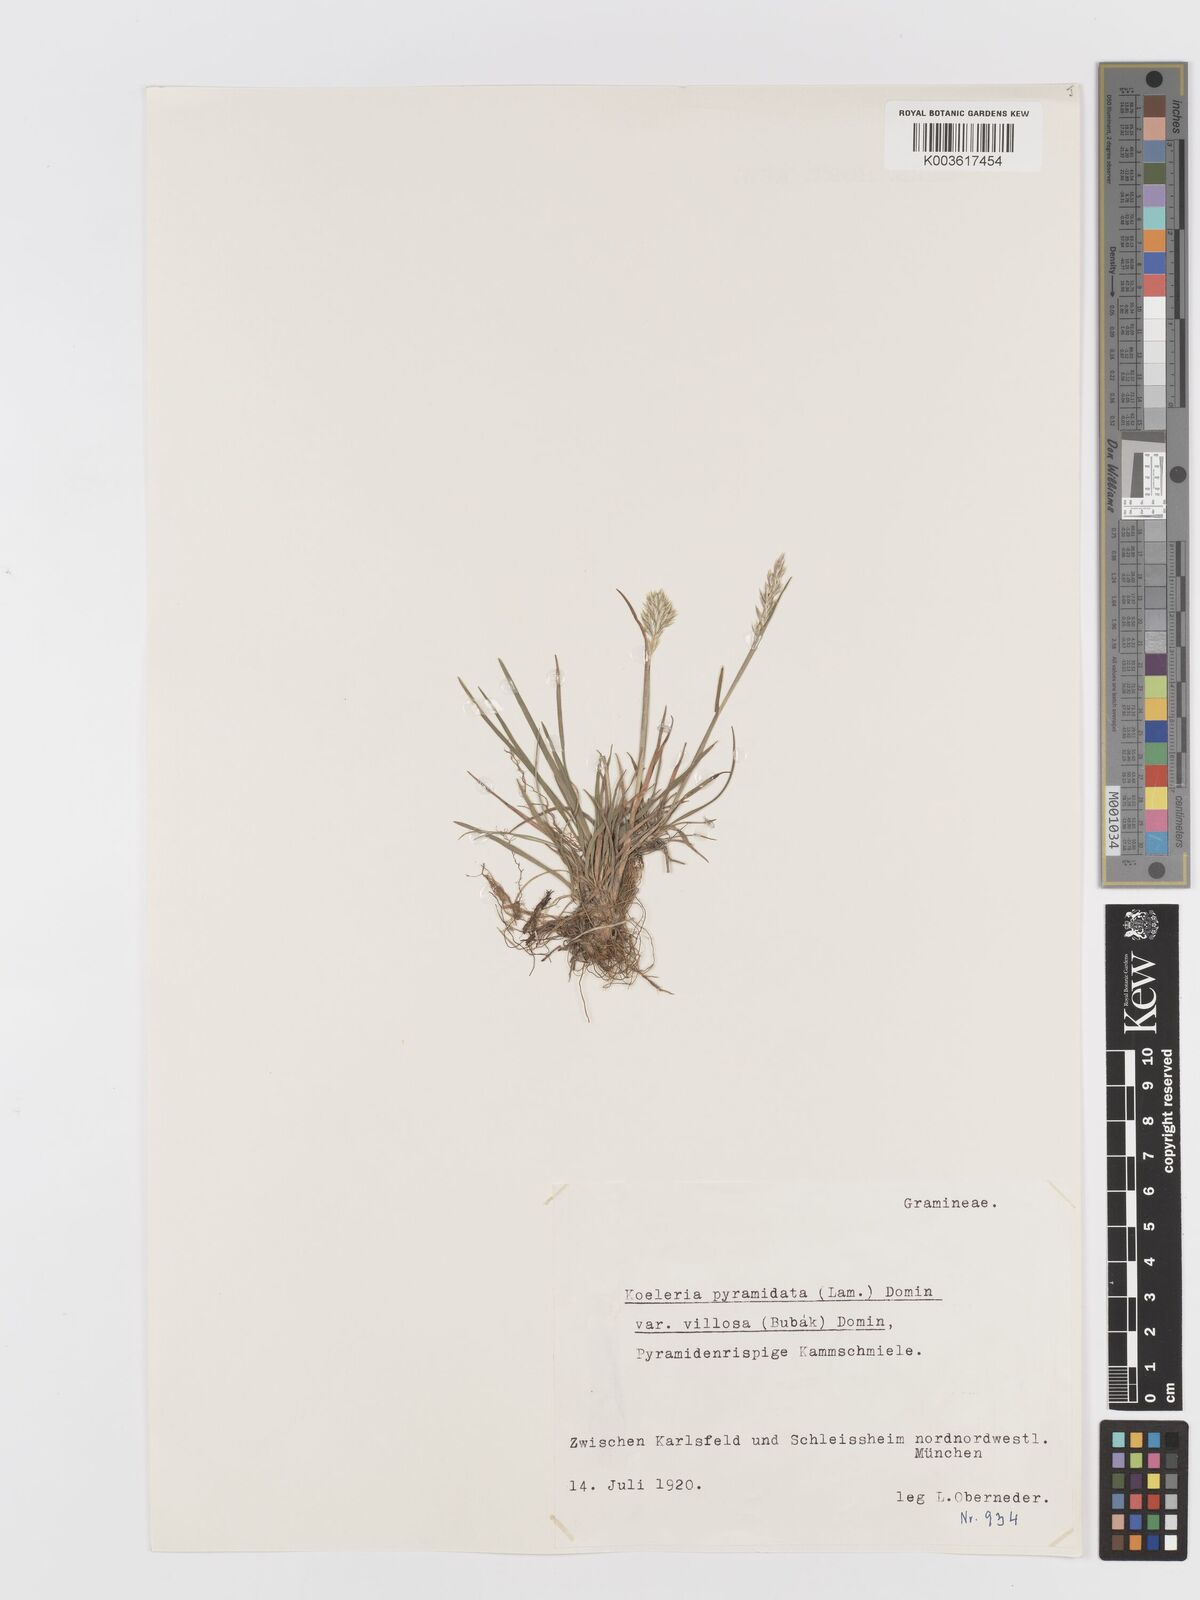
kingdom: Plantae
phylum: Tracheophyta
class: Liliopsida
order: Poales
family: Poaceae
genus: Koeleria
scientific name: Koeleria pyramidata
